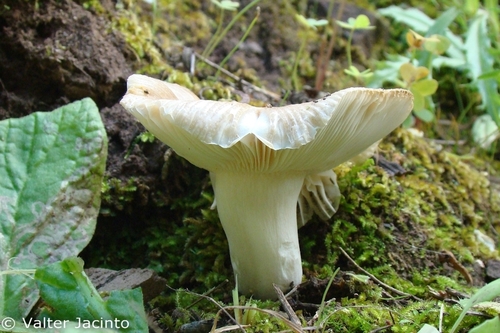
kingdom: Fungi
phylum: Basidiomycota
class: Agaricomycetes
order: Russulales
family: Russulaceae
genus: Russula
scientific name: Russula pectinatoides
